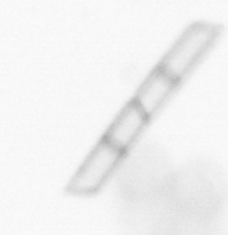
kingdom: Chromista
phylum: Ochrophyta
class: Bacillariophyceae
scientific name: Bacillariophyceae
